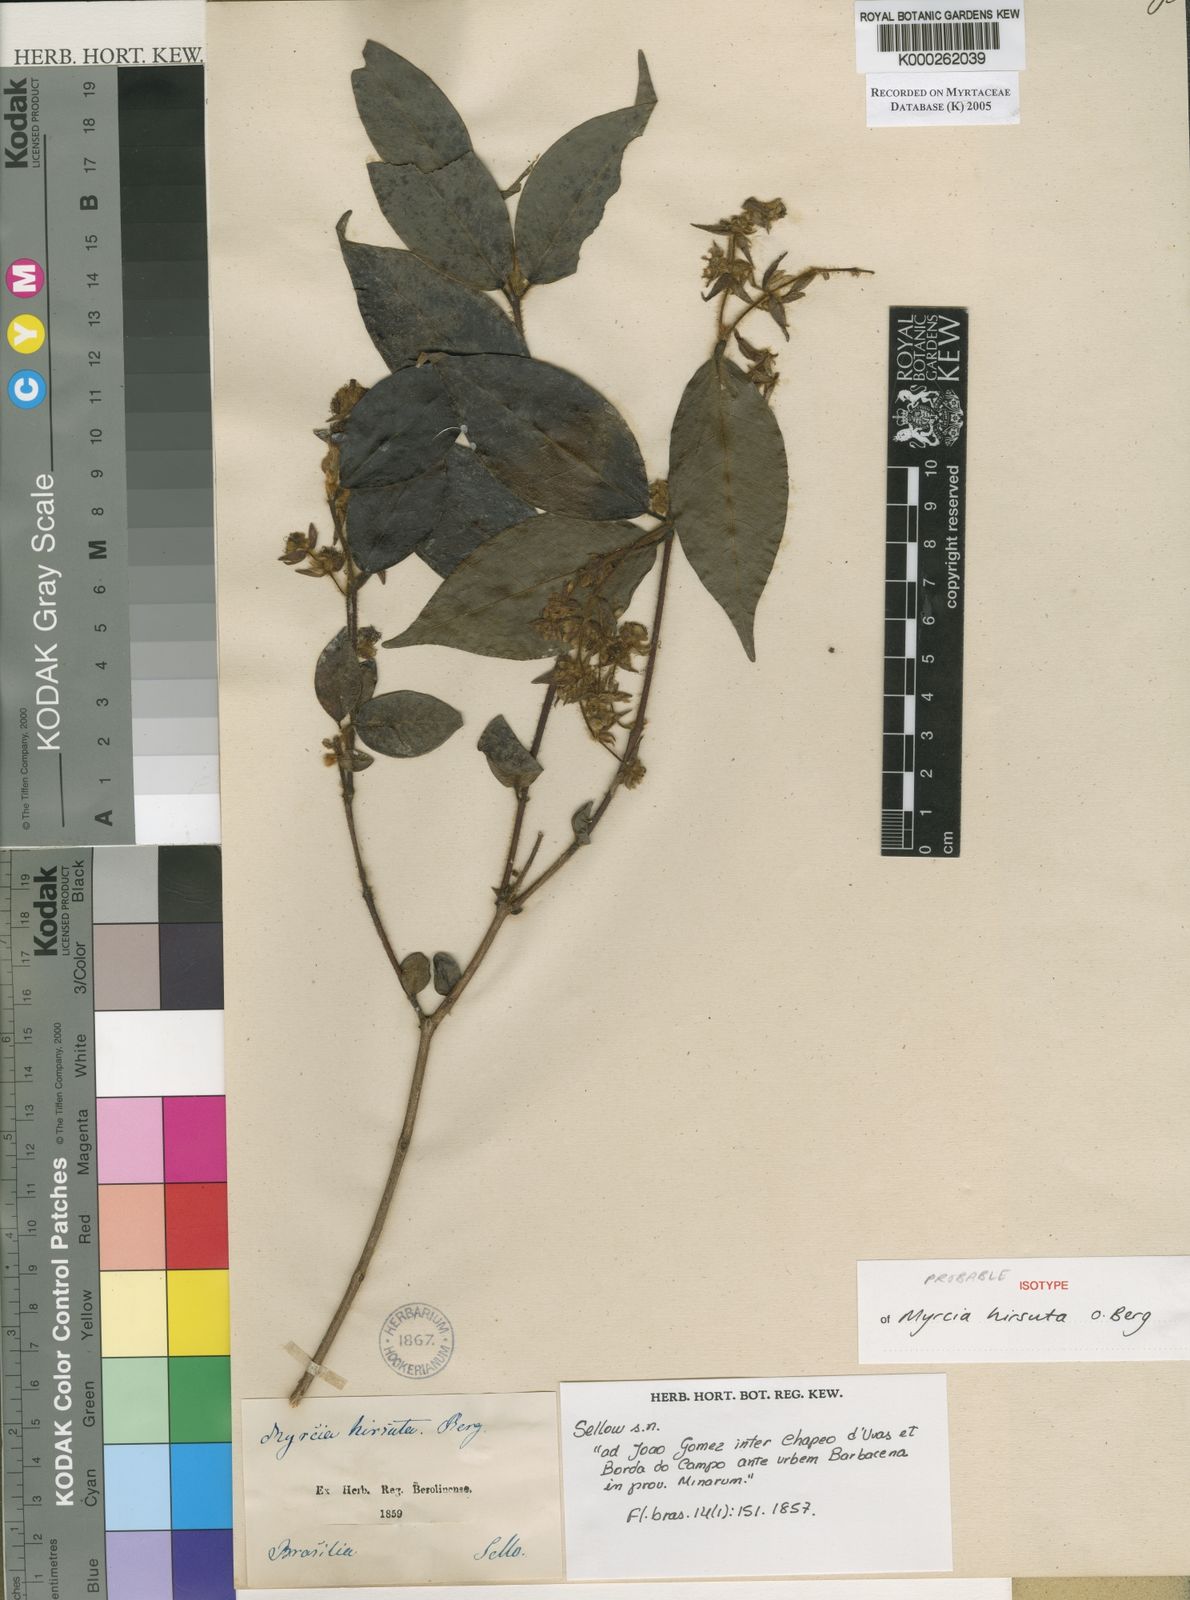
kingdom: Plantae
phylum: Tracheophyta
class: Magnoliopsida
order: Myrtales
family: Myrtaceae
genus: Myrcia
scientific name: Myrcia eriopus
